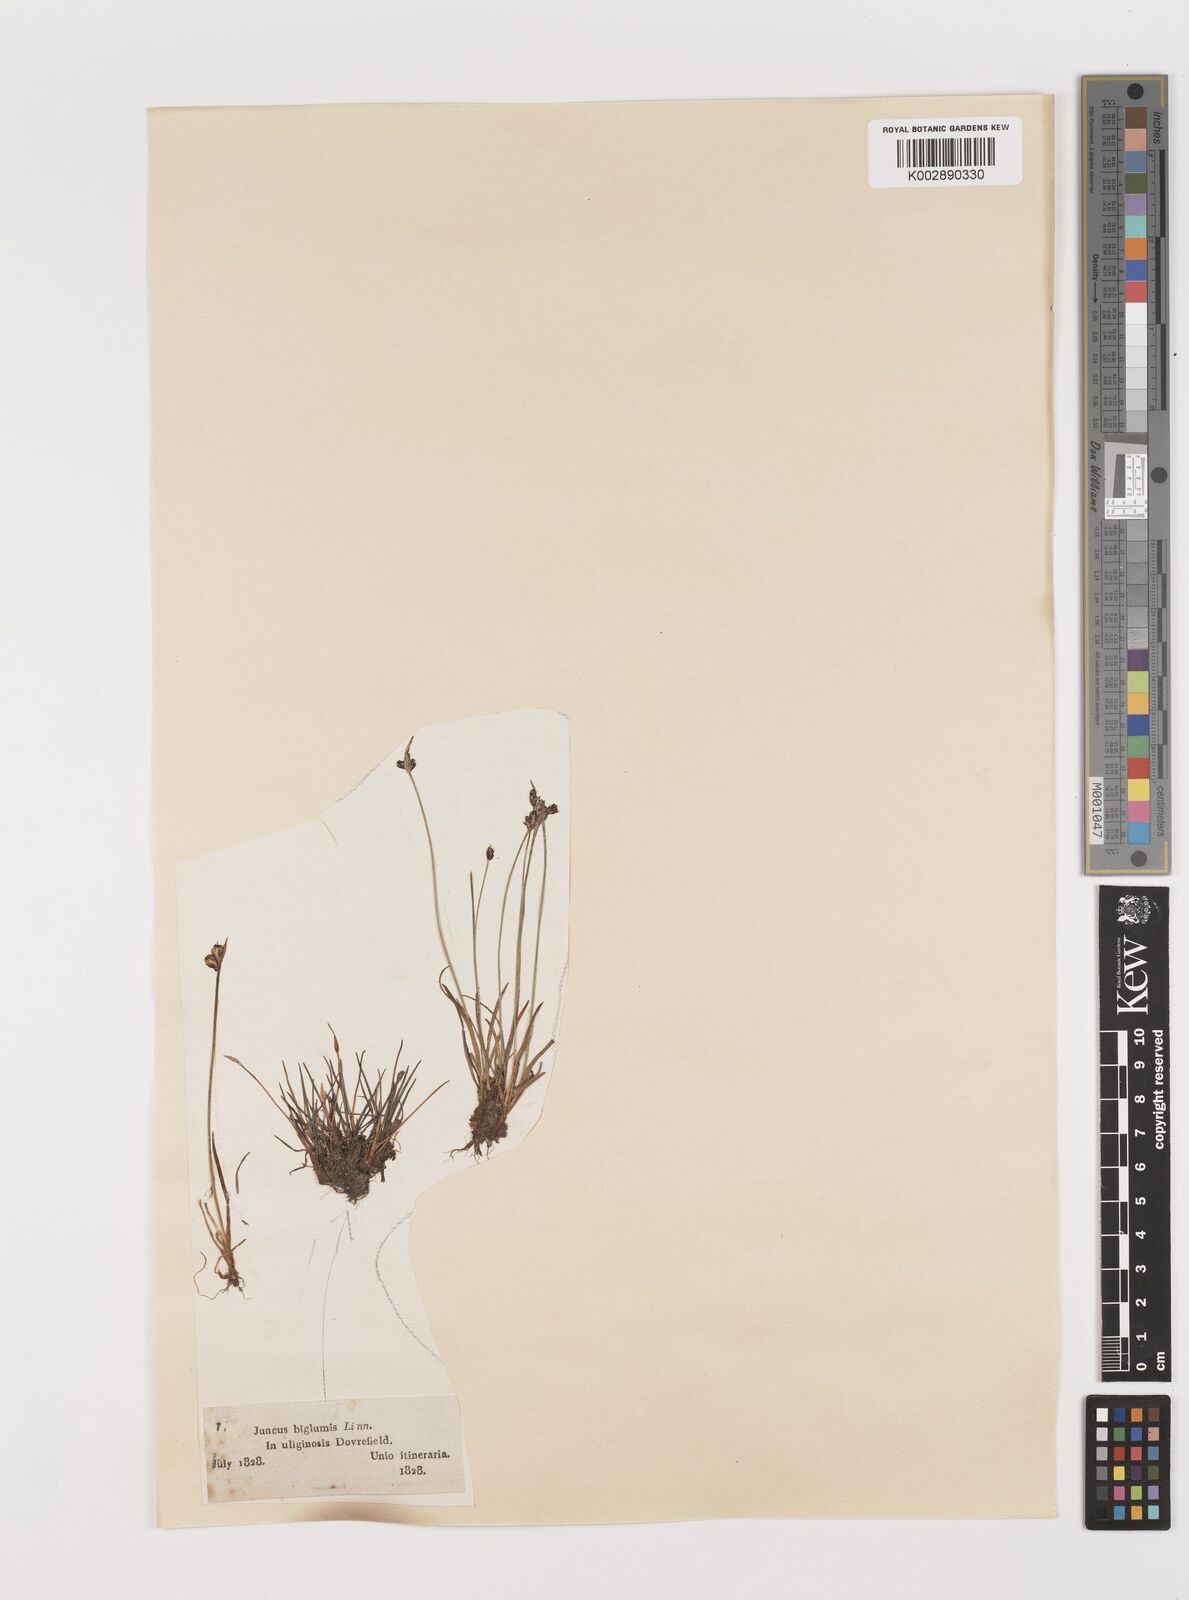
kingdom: Plantae
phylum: Tracheophyta
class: Liliopsida
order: Poales
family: Juncaceae
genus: Juncus
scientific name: Juncus biglumis
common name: Two-flowered rush
